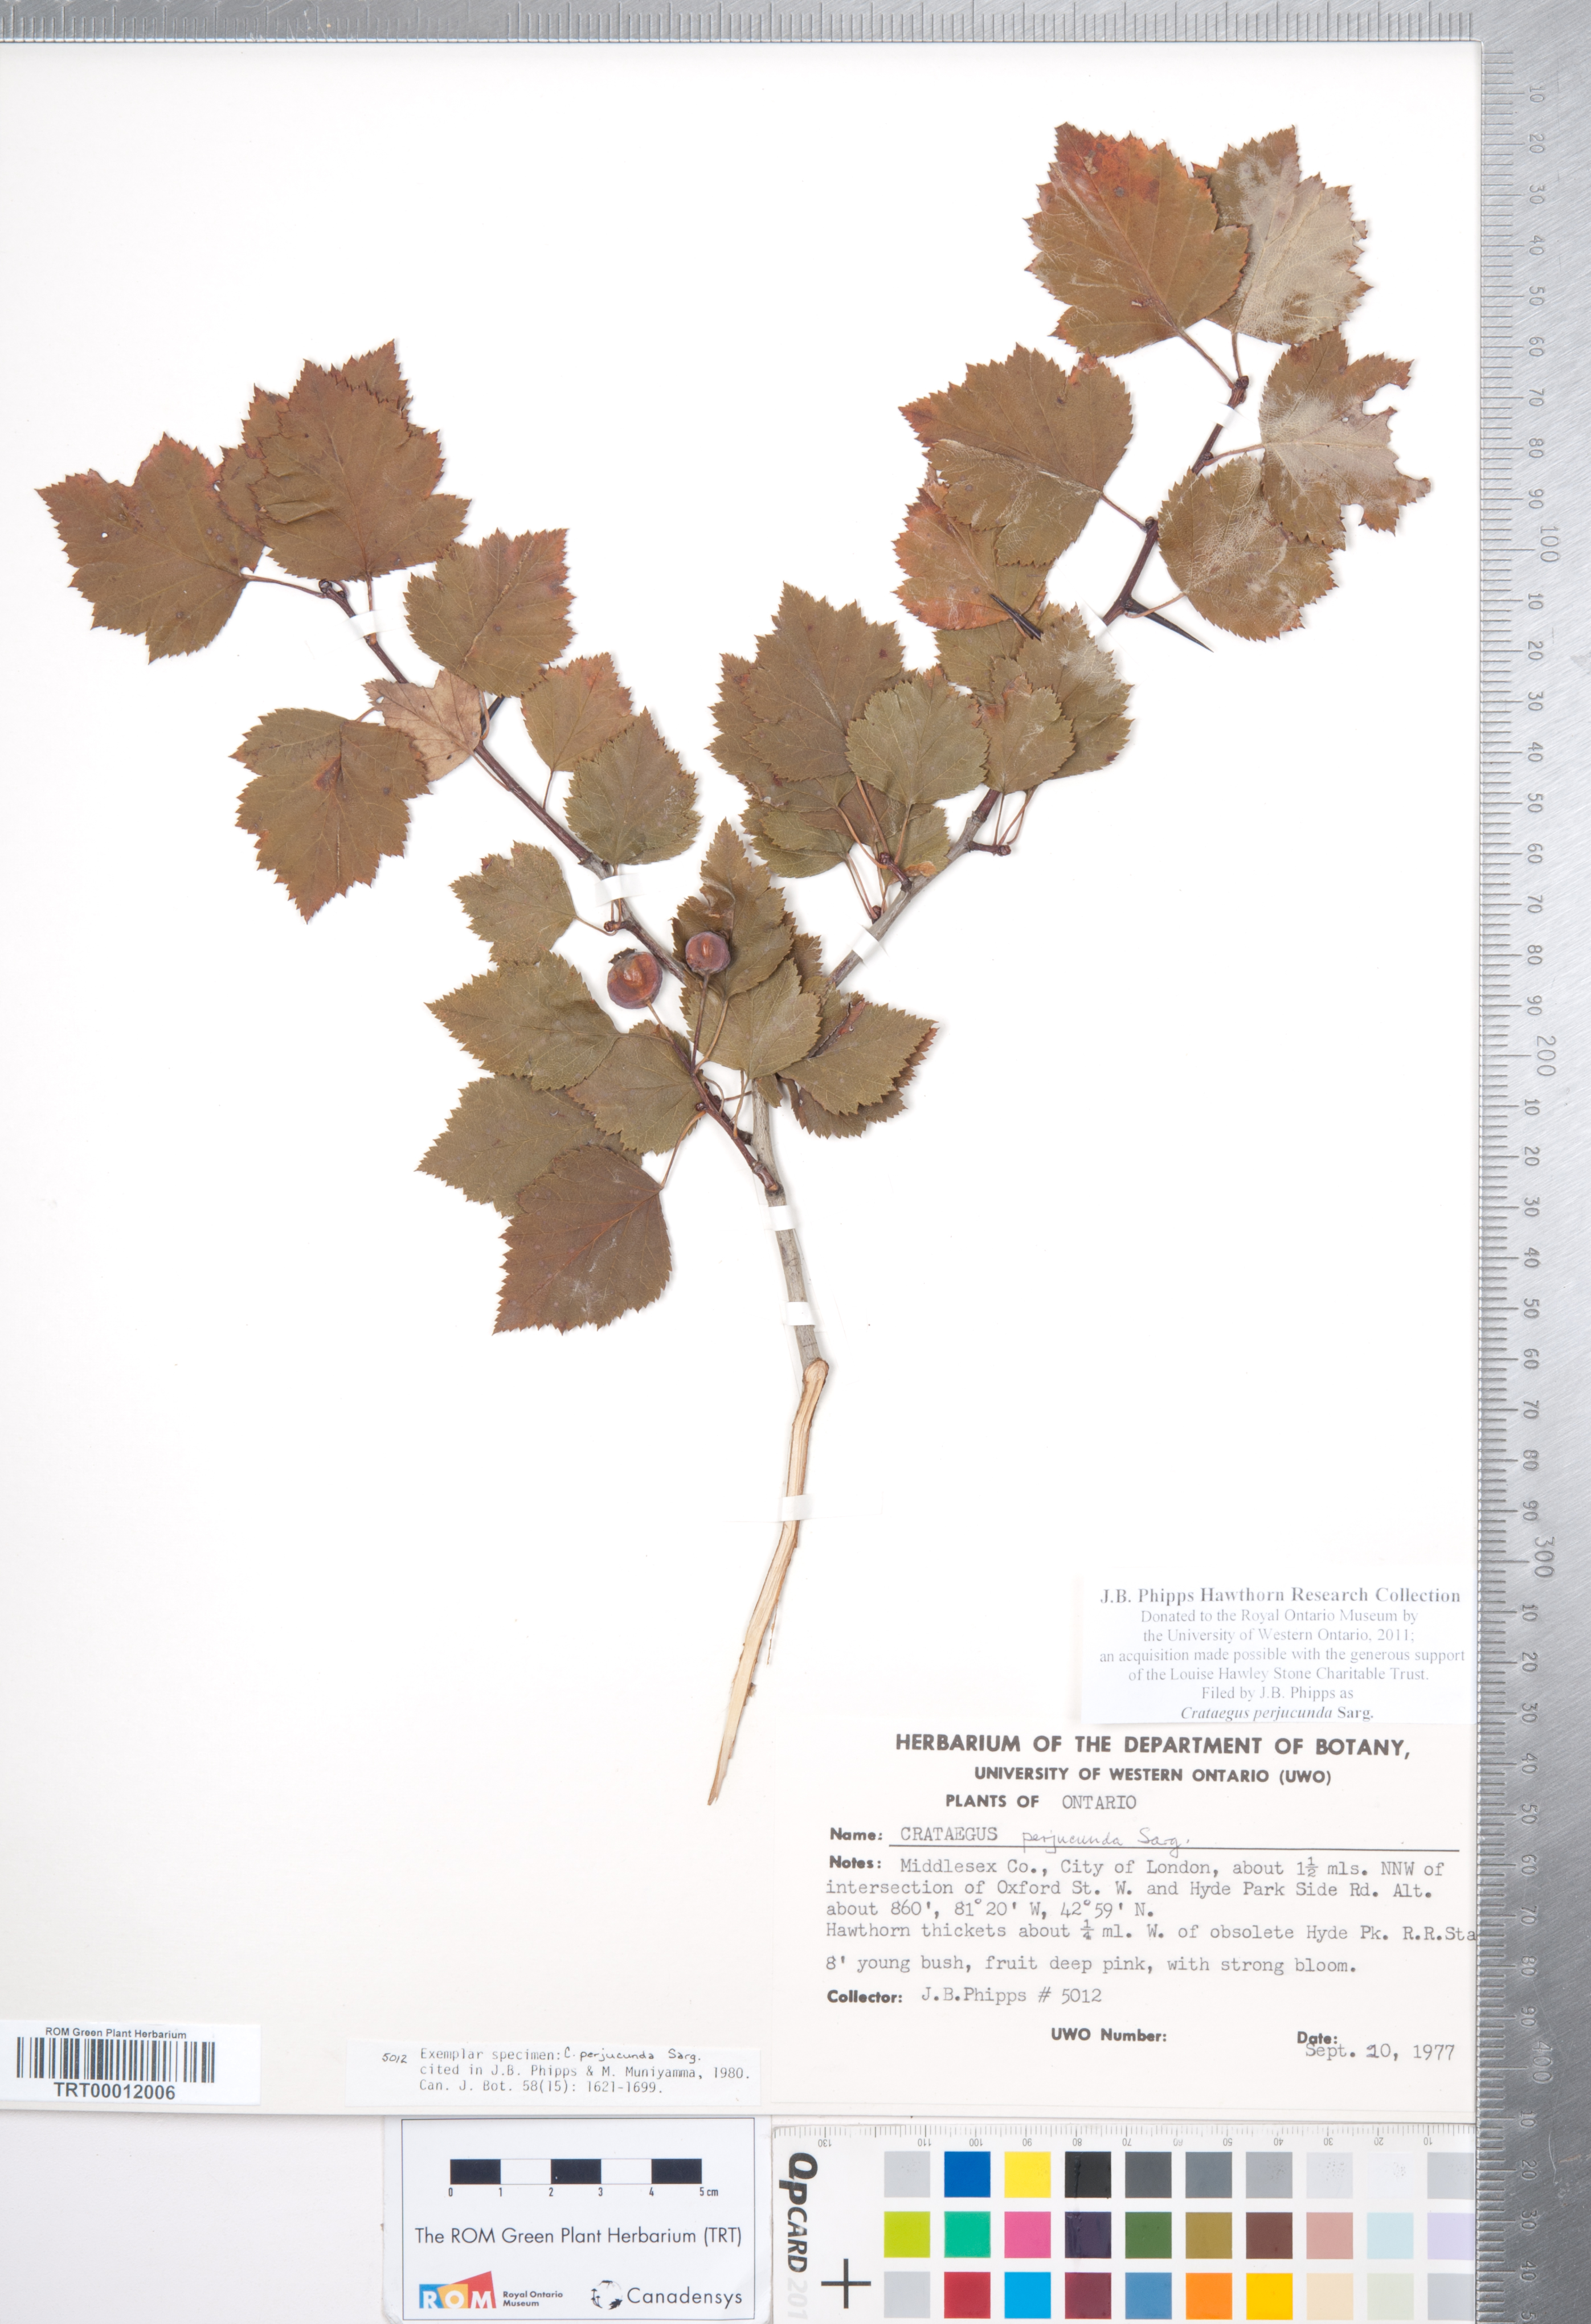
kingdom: Plantae
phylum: Tracheophyta
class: Magnoliopsida
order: Rosales
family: Rosaceae
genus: Crataegus
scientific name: Crataegus cognata
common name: Cognate hawthorn
